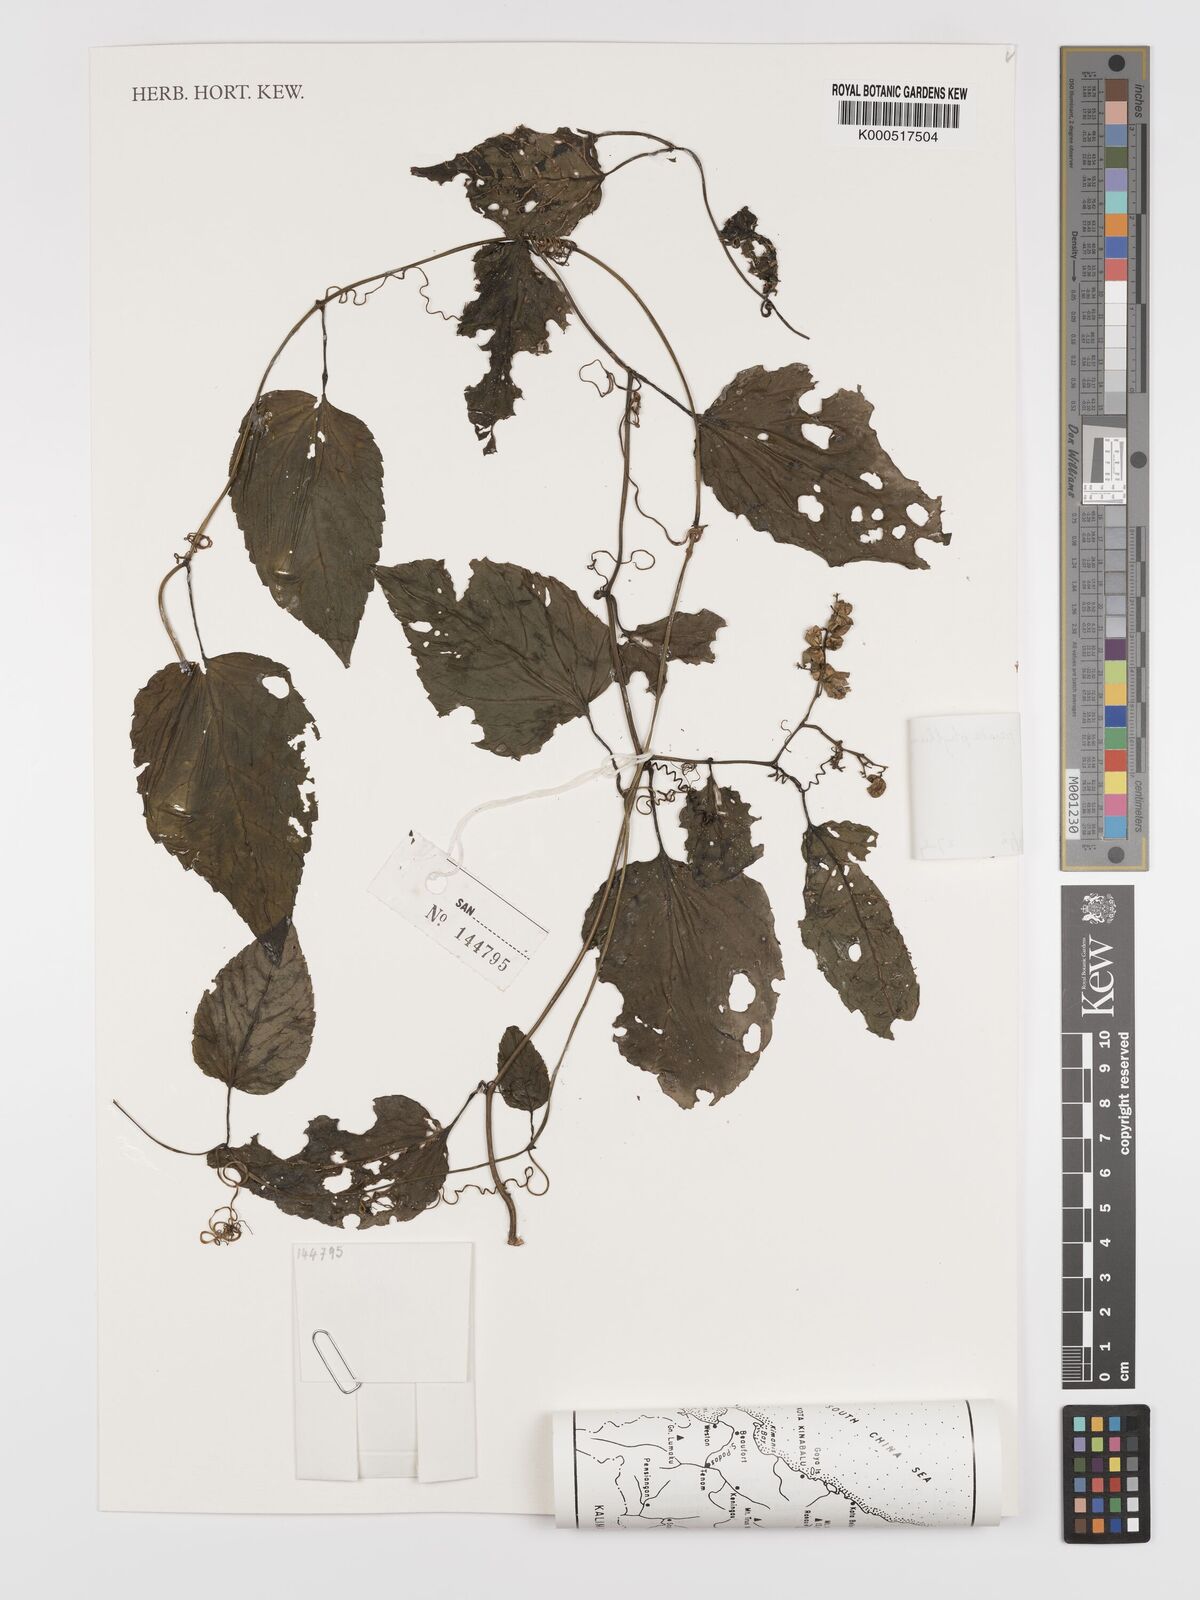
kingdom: Plantae
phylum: Tracheophyta
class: Magnoliopsida
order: Cucurbitales
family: Cucurbitaceae
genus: Gynostemma
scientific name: Gynostemma pentaphyllum
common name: Gynostemma
